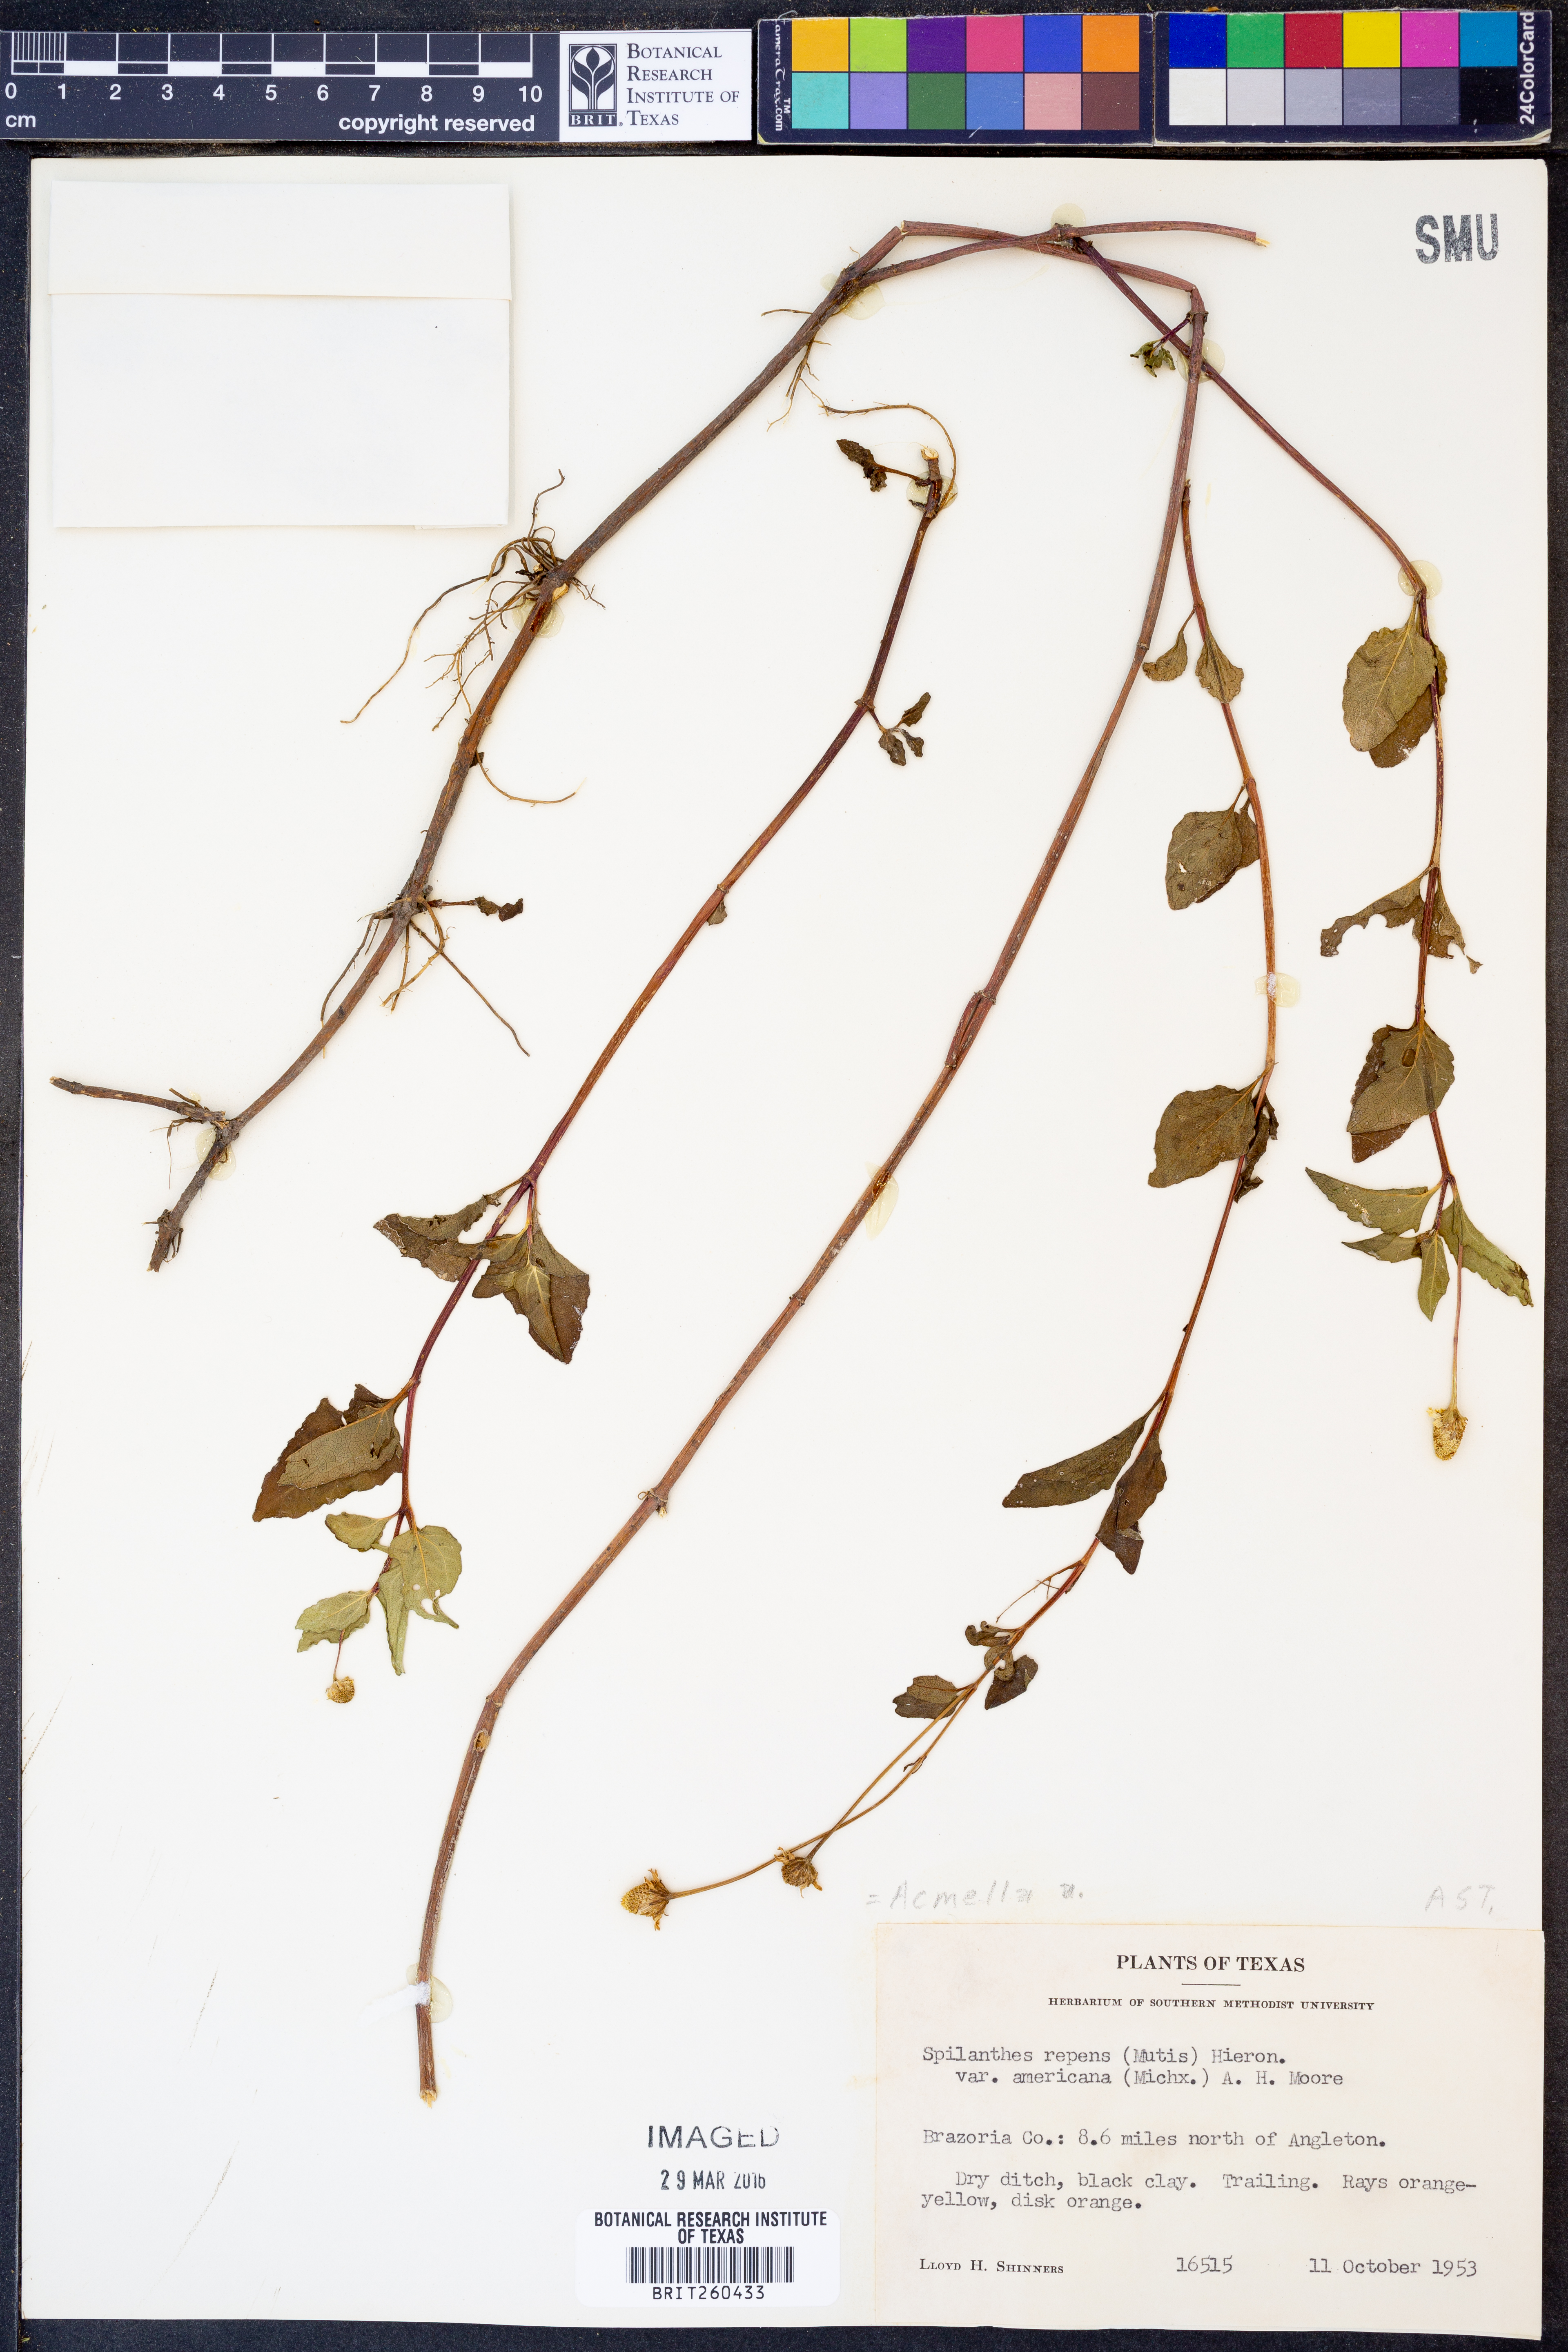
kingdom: Plantae
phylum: Tracheophyta
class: Magnoliopsida
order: Asterales
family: Asteraceae
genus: Acmella
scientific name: Acmella repens
